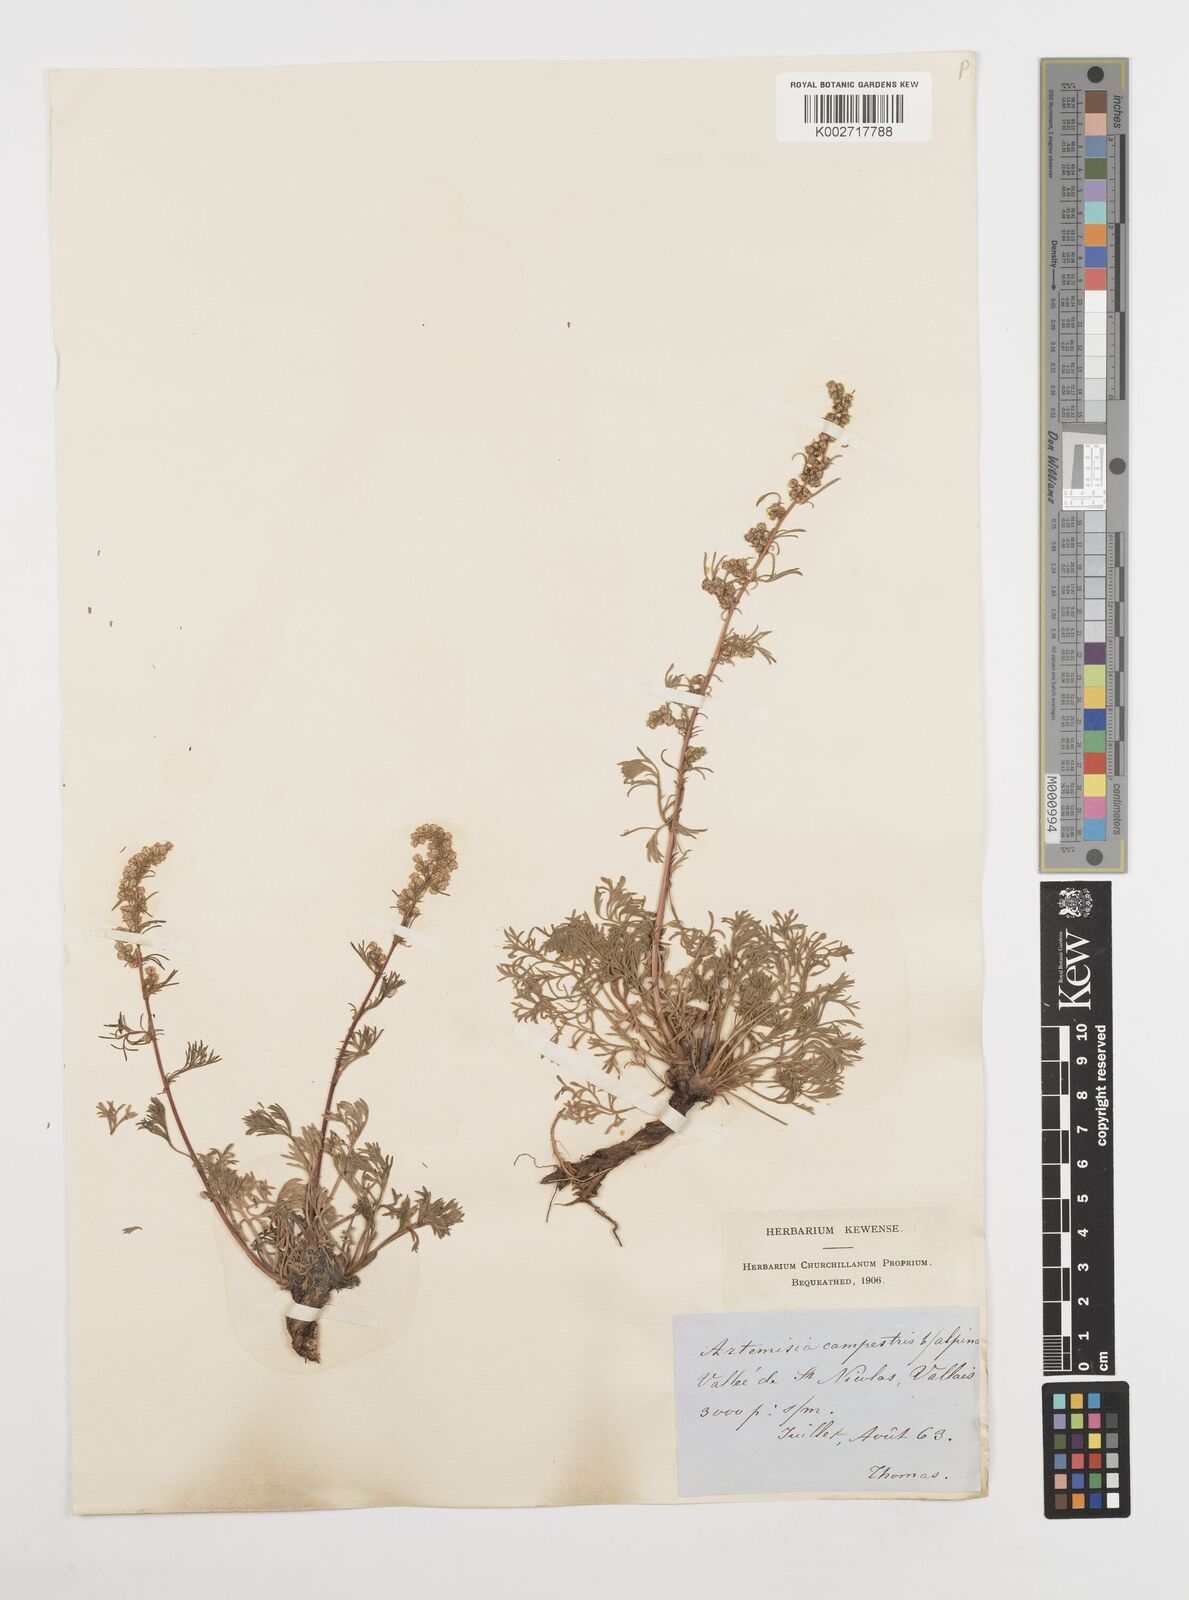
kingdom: Plantae
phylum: Tracheophyta
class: Magnoliopsida
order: Asterales
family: Asteraceae
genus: Artemisia
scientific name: Artemisia campestris
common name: Field wormwood
